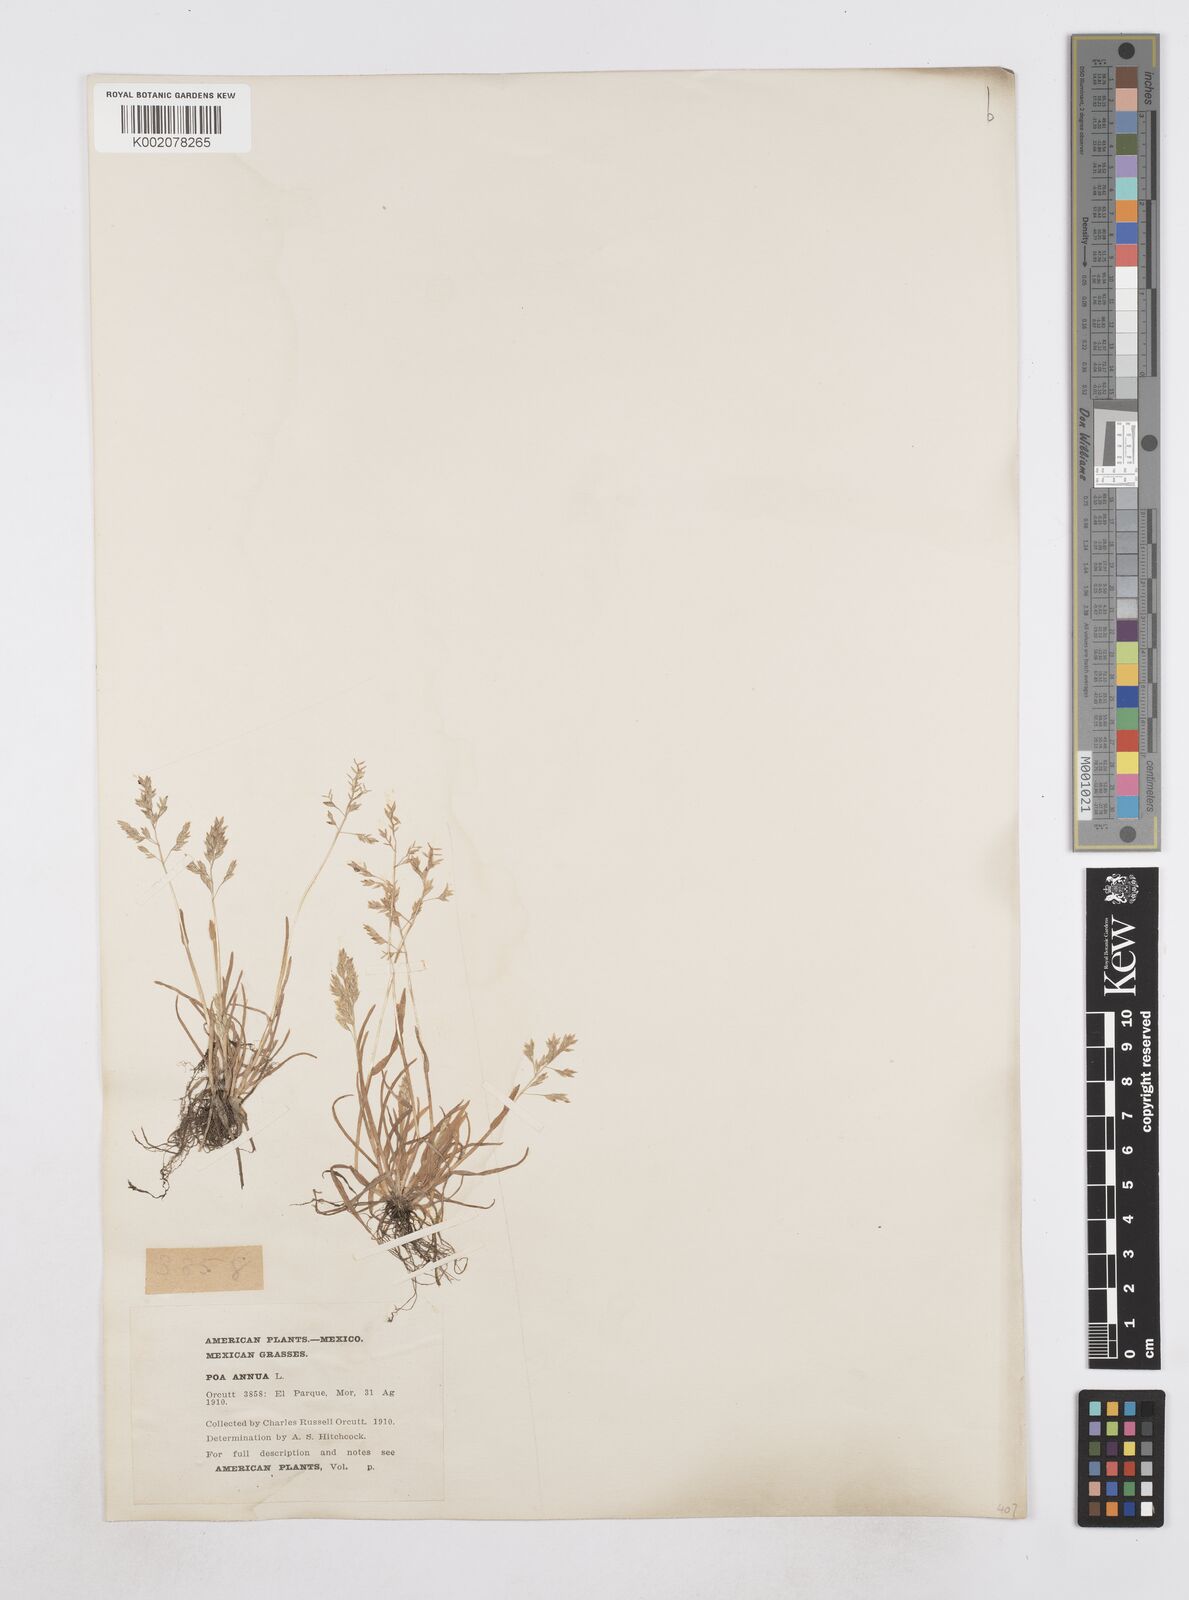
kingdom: Plantae
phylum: Tracheophyta
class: Liliopsida
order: Poales
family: Poaceae
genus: Poa
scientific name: Poa annua
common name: Annual bluegrass
